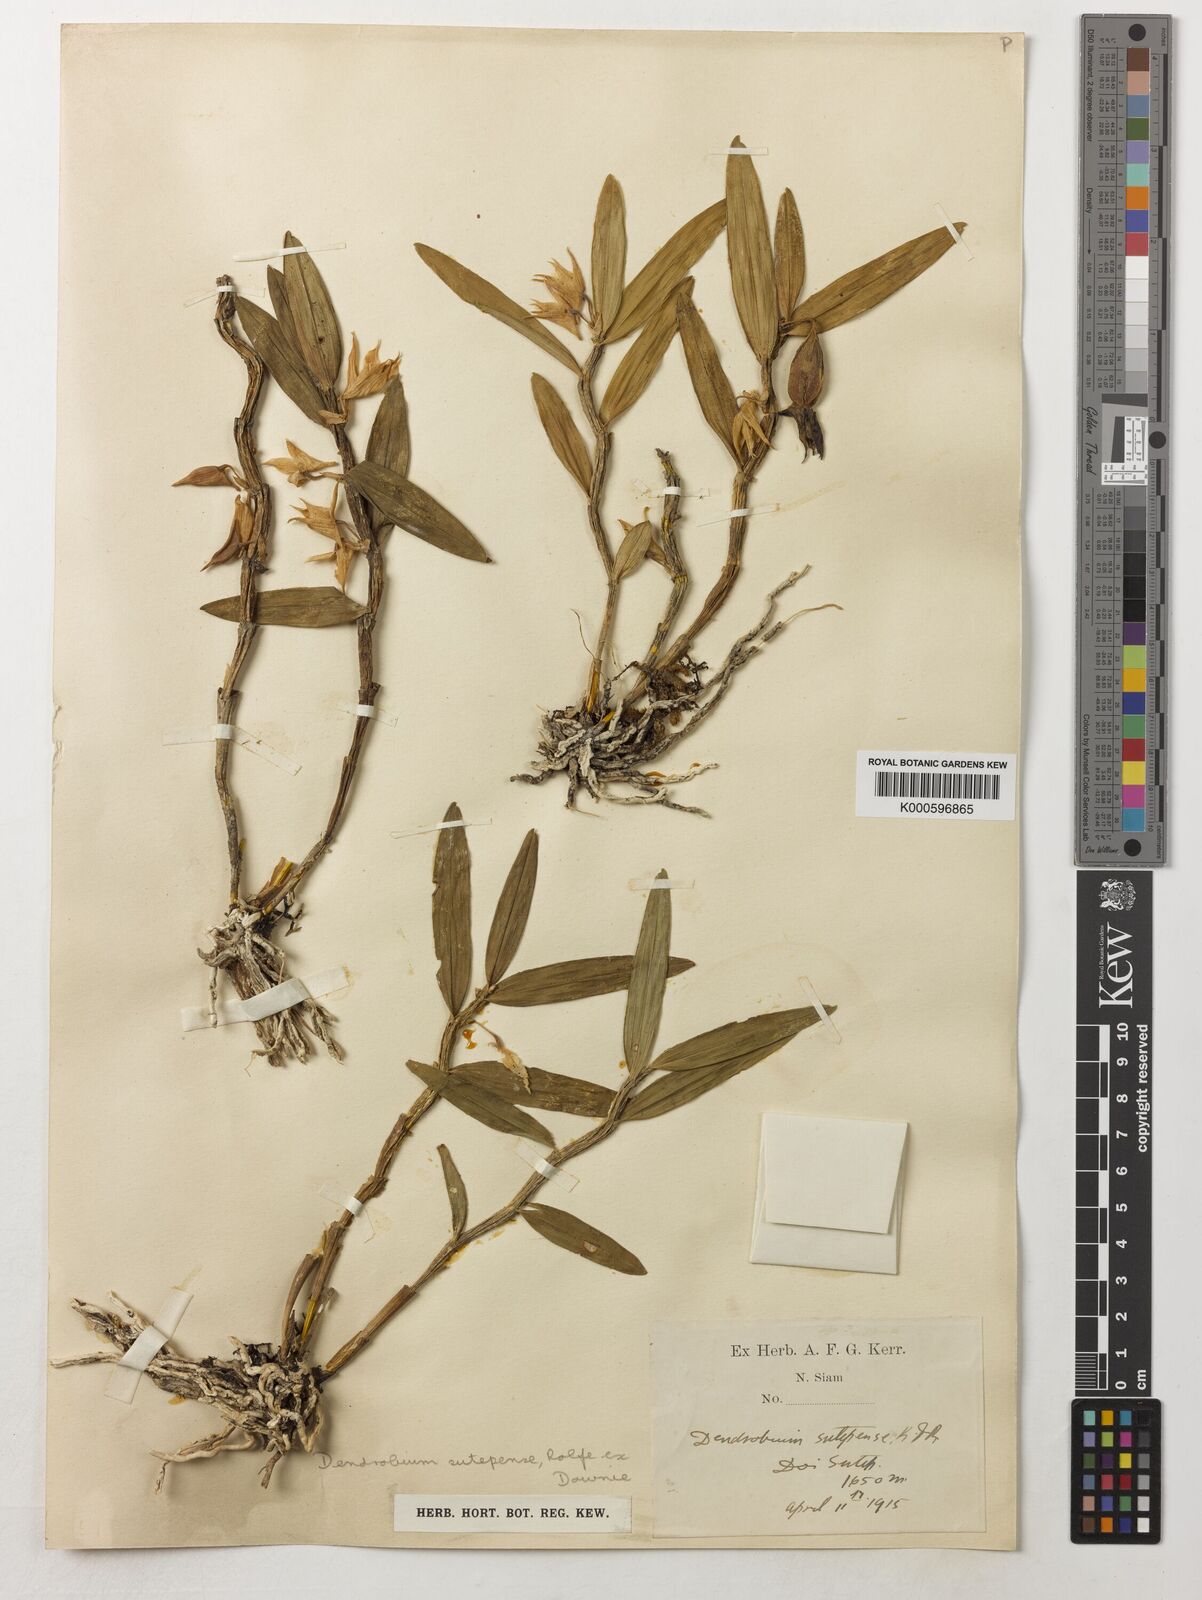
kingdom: Plantae
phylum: Tracheophyta
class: Liliopsida
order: Asparagales
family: Orchidaceae
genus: Dendrobium
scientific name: Dendrobium sutepense
